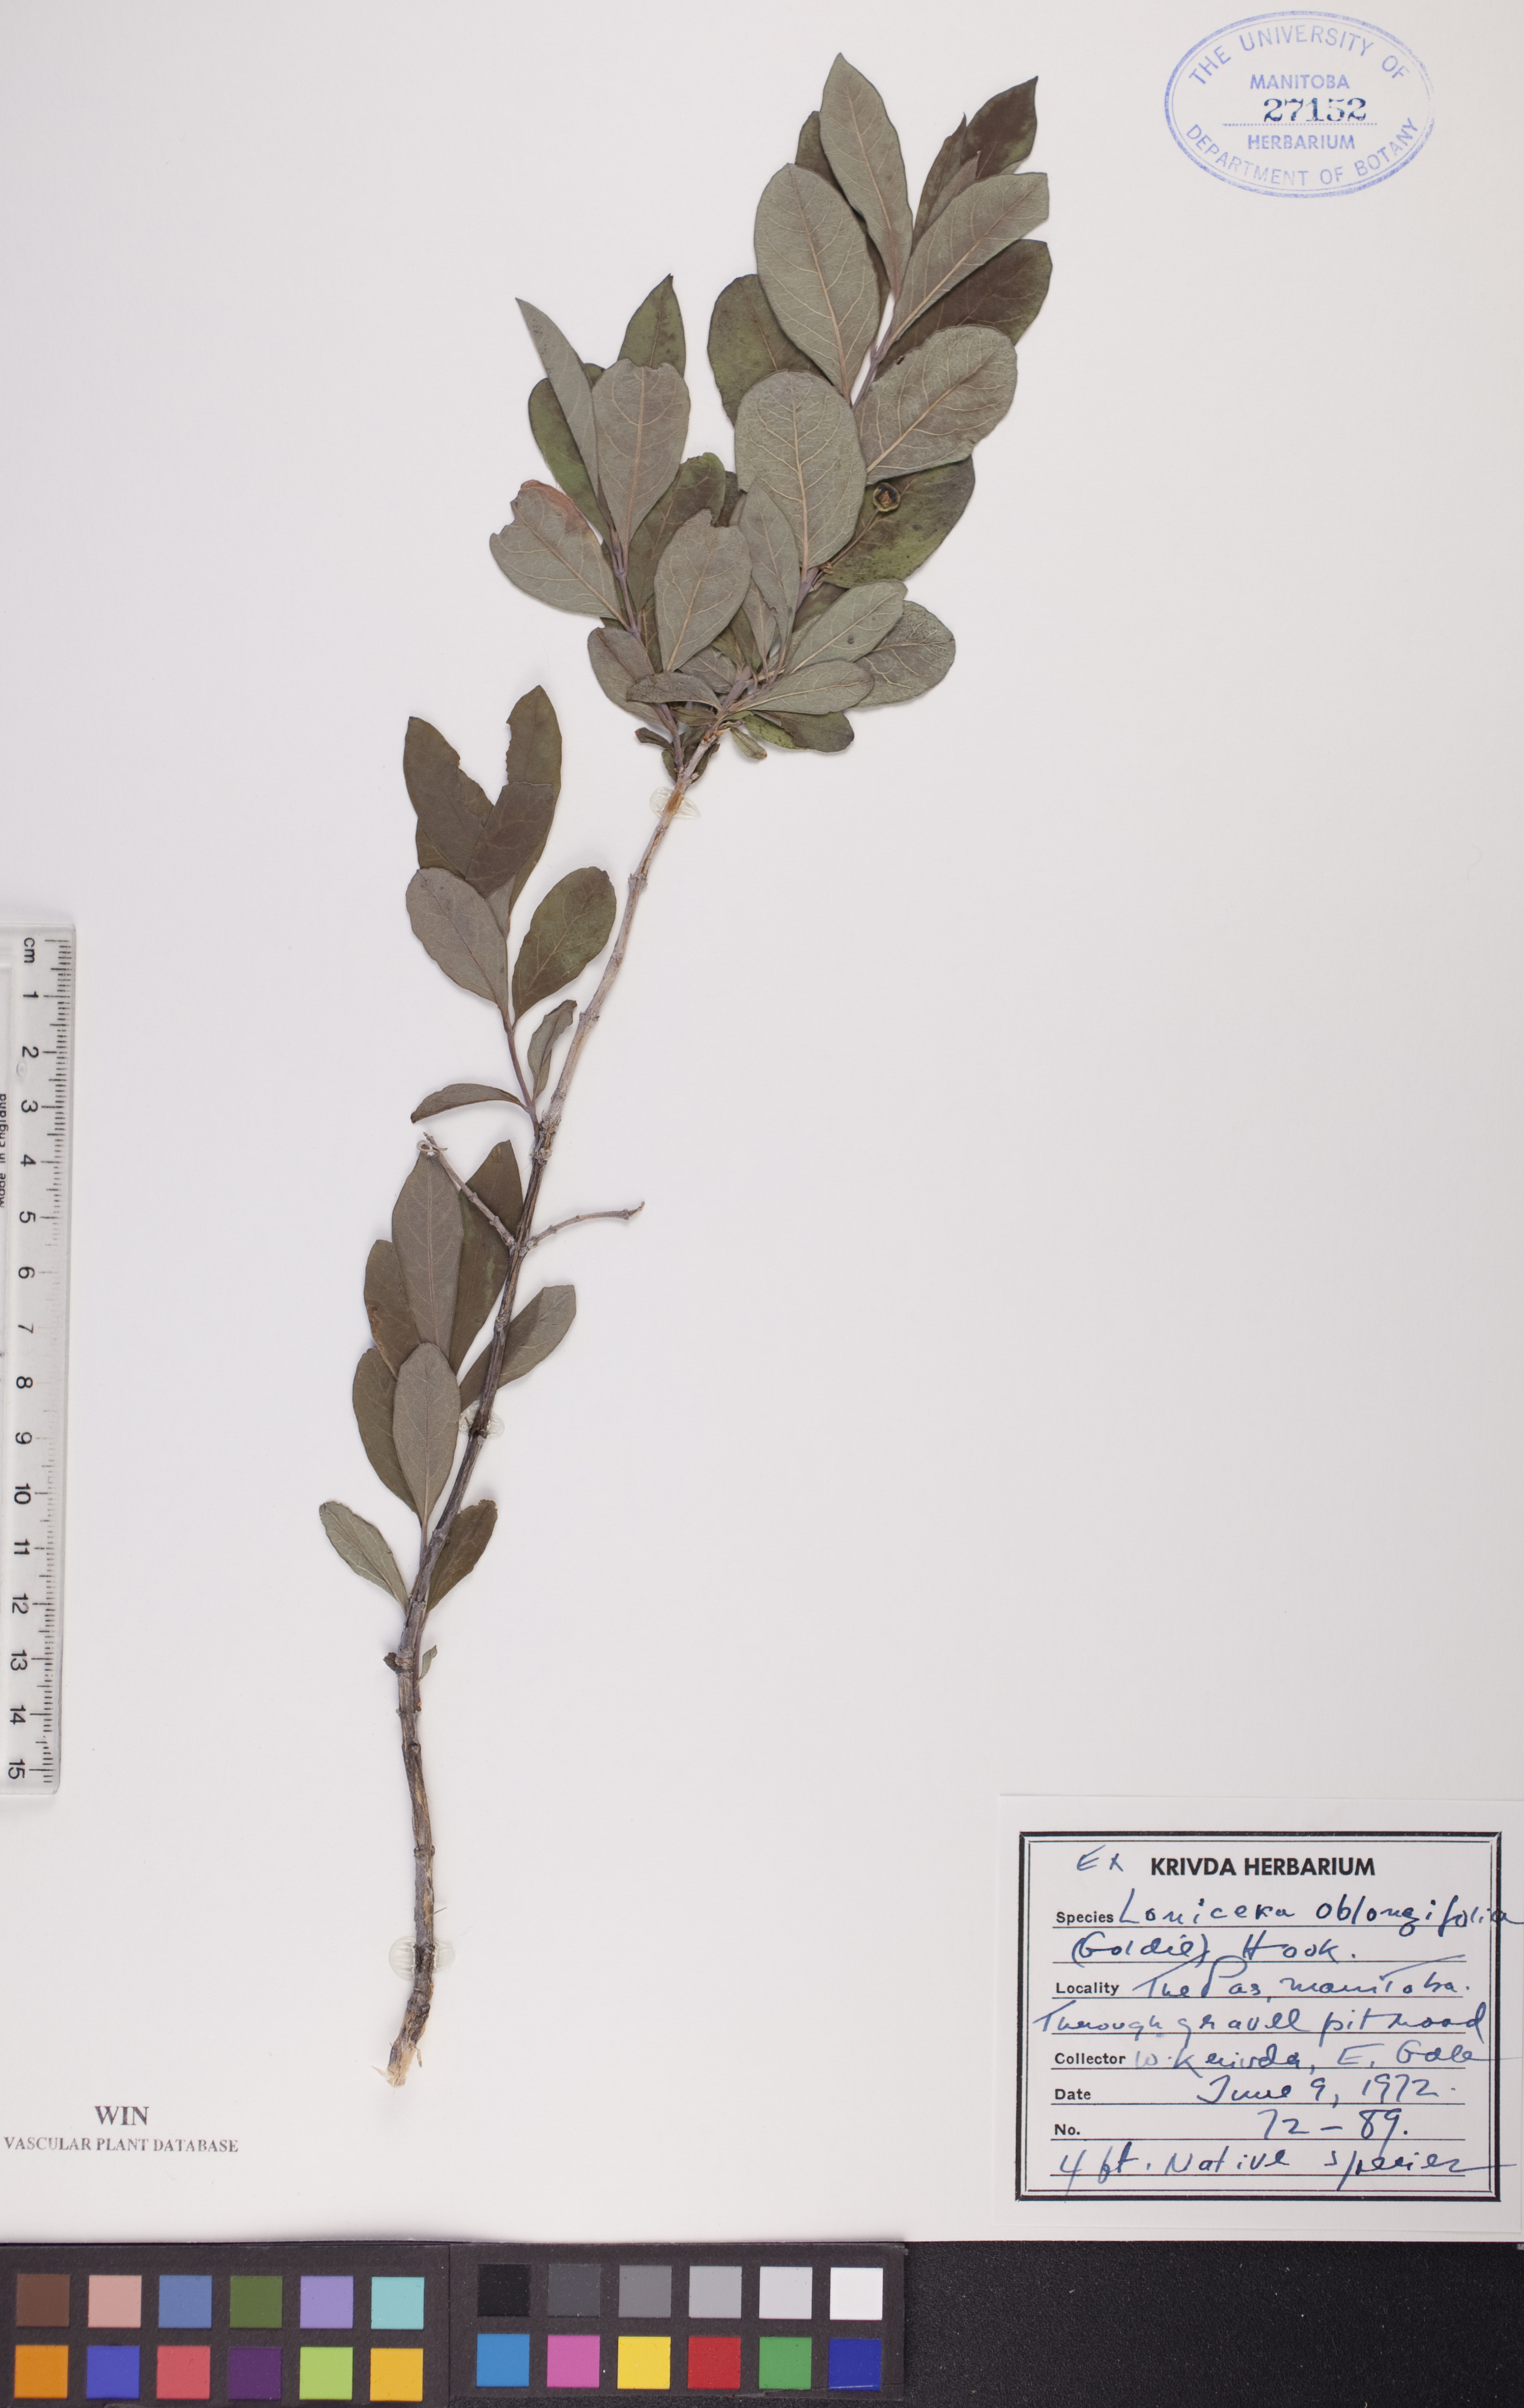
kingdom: Plantae
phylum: Tracheophyta
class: Magnoliopsida
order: Dipsacales
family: Caprifoliaceae
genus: Lonicera
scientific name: Lonicera oblongifolia
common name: Swamp fly honeysuckle
